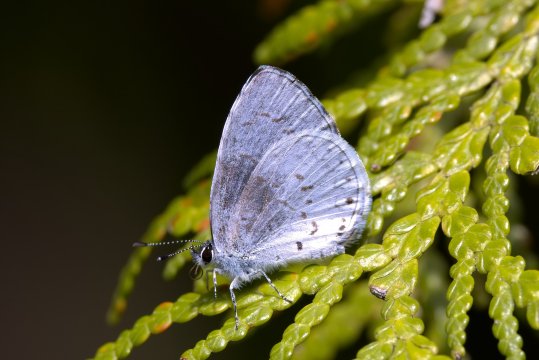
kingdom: Animalia
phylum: Arthropoda
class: Insecta
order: Lepidoptera
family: Lycaenidae
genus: Cyaniris
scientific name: Cyaniris neglecta
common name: Summer Azure
